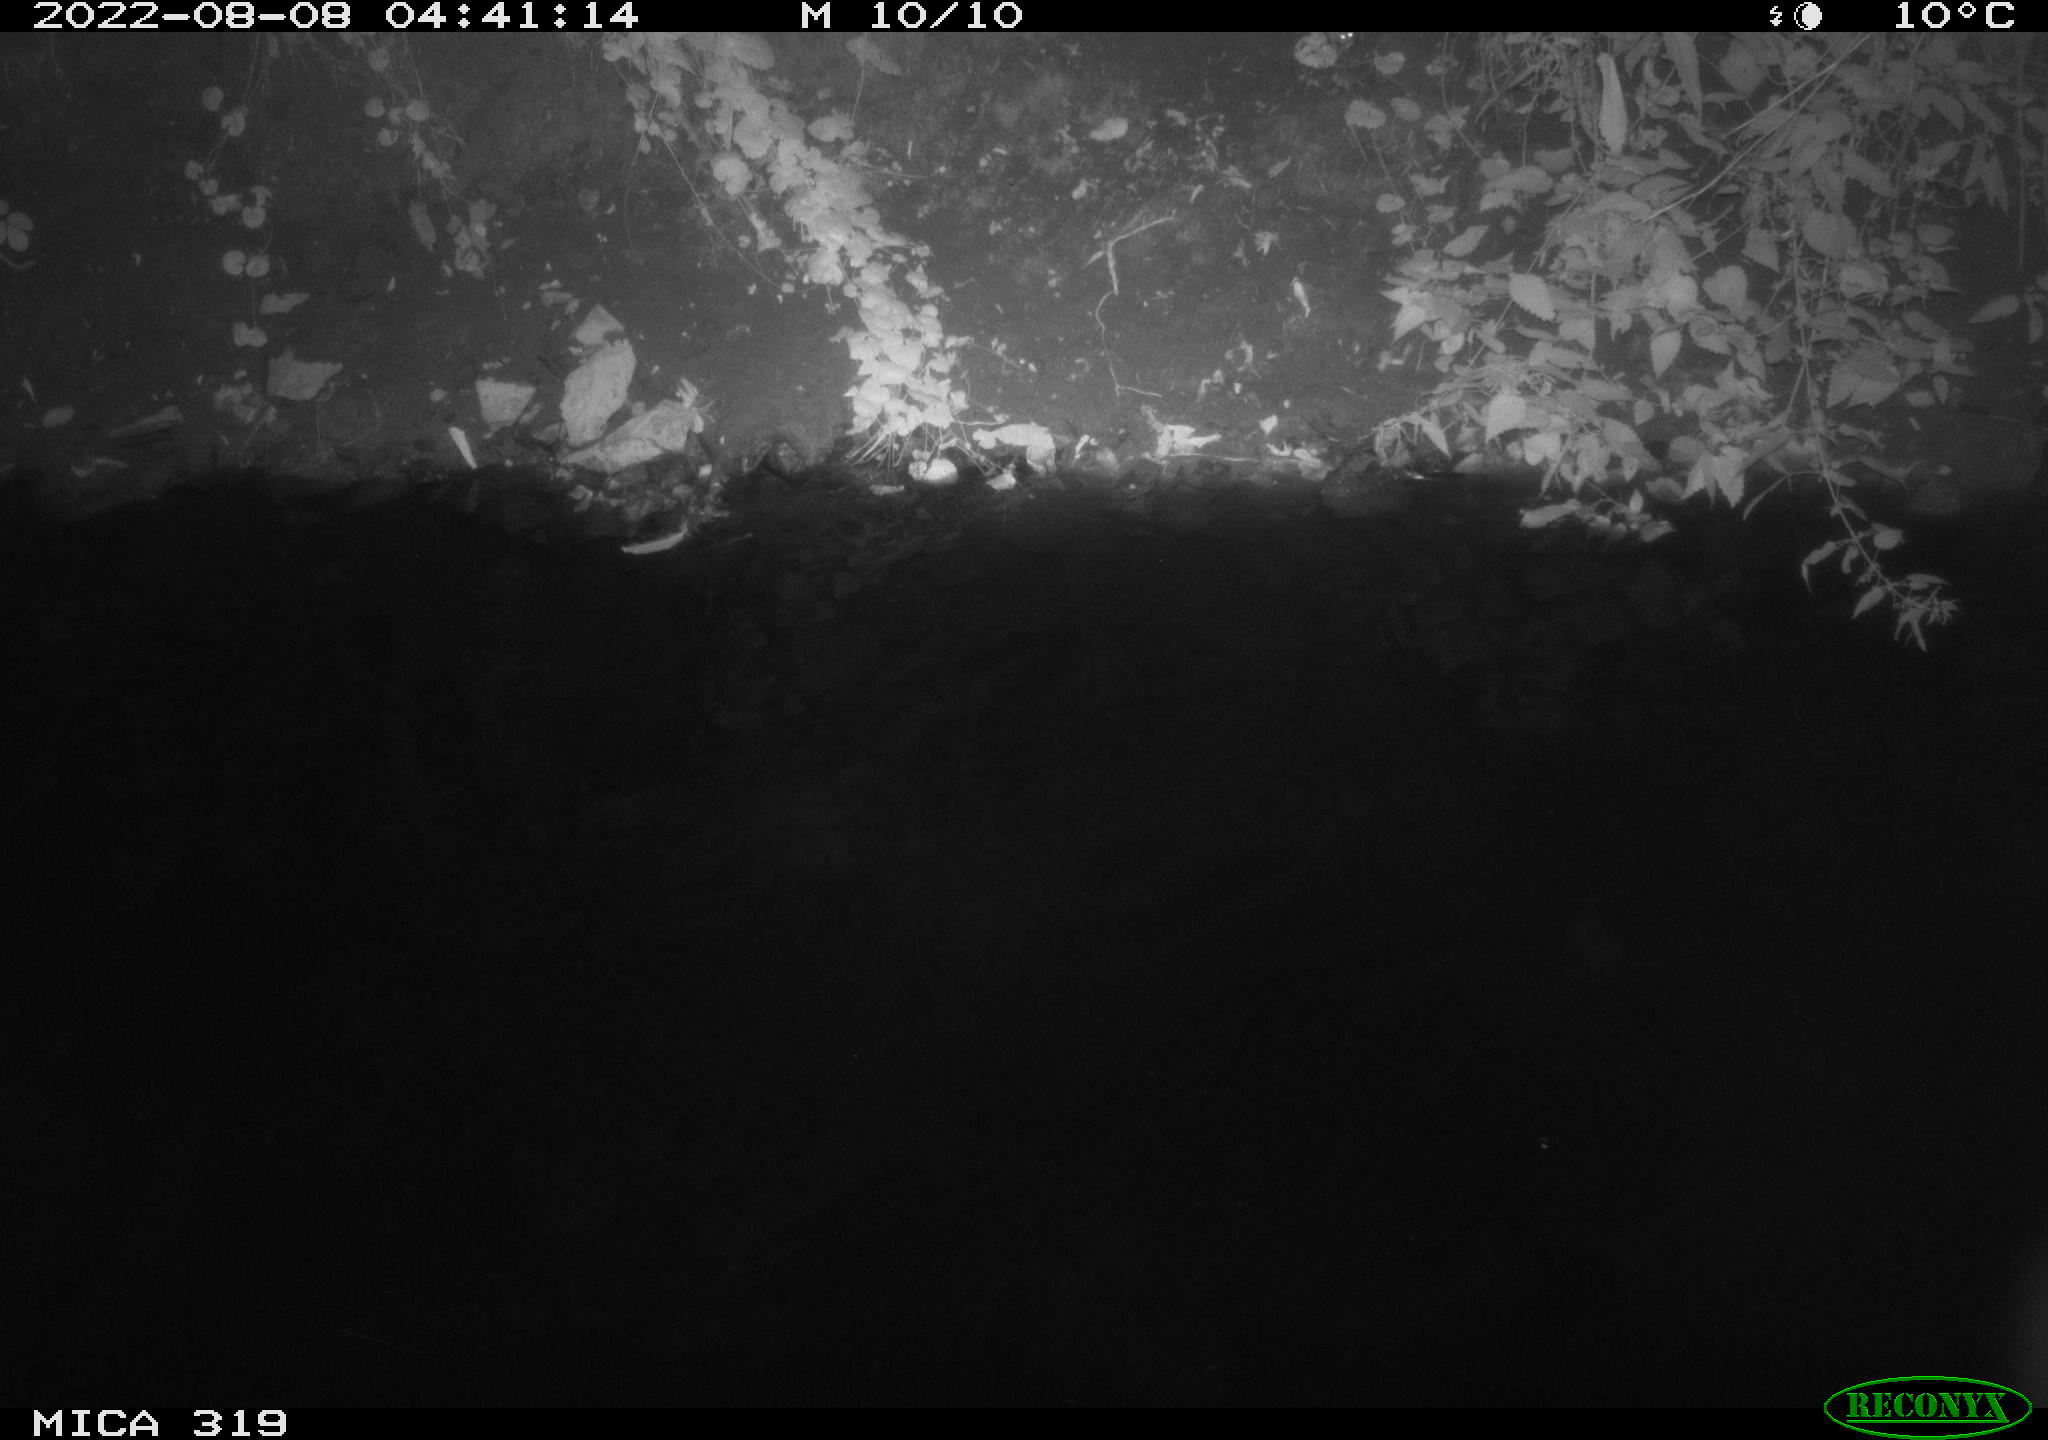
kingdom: Animalia
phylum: Chordata
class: Aves
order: Anseriformes
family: Anatidae
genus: Anas
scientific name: Anas
